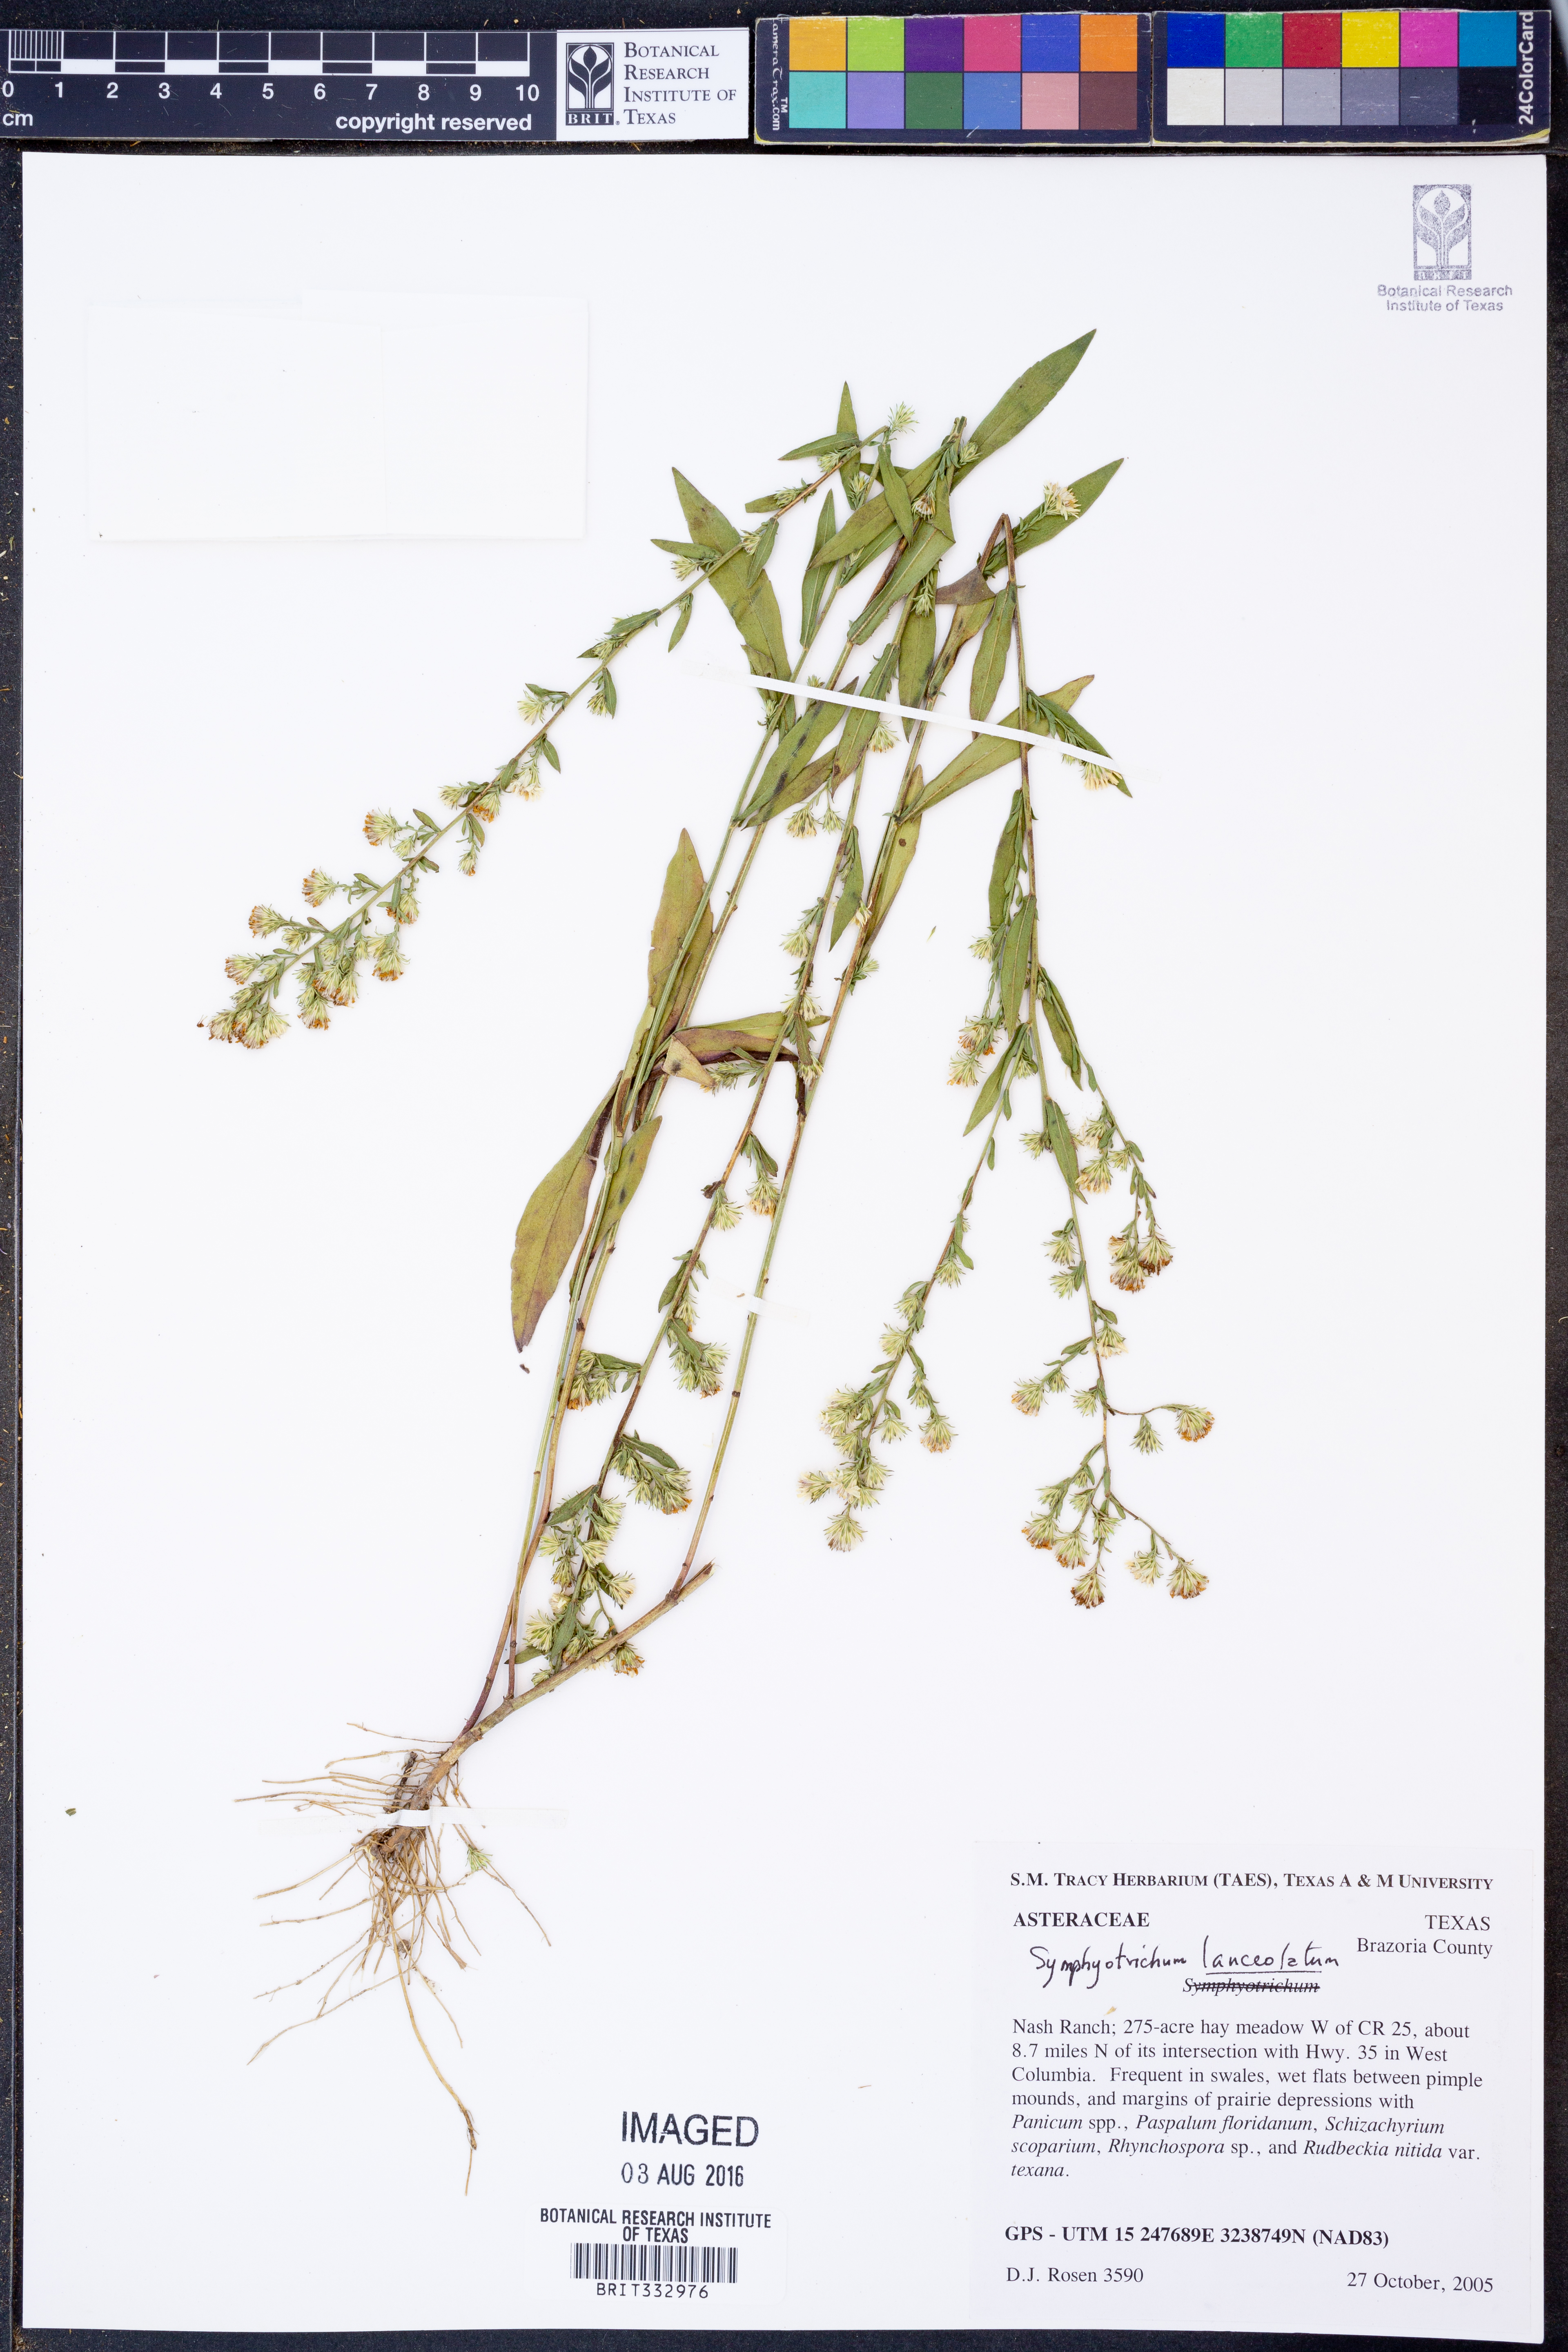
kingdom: Plantae
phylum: Tracheophyta
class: Magnoliopsida
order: Asterales
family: Asteraceae
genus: Symphyotrichum
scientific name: Symphyotrichum lanceolatum
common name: Panicled aster
